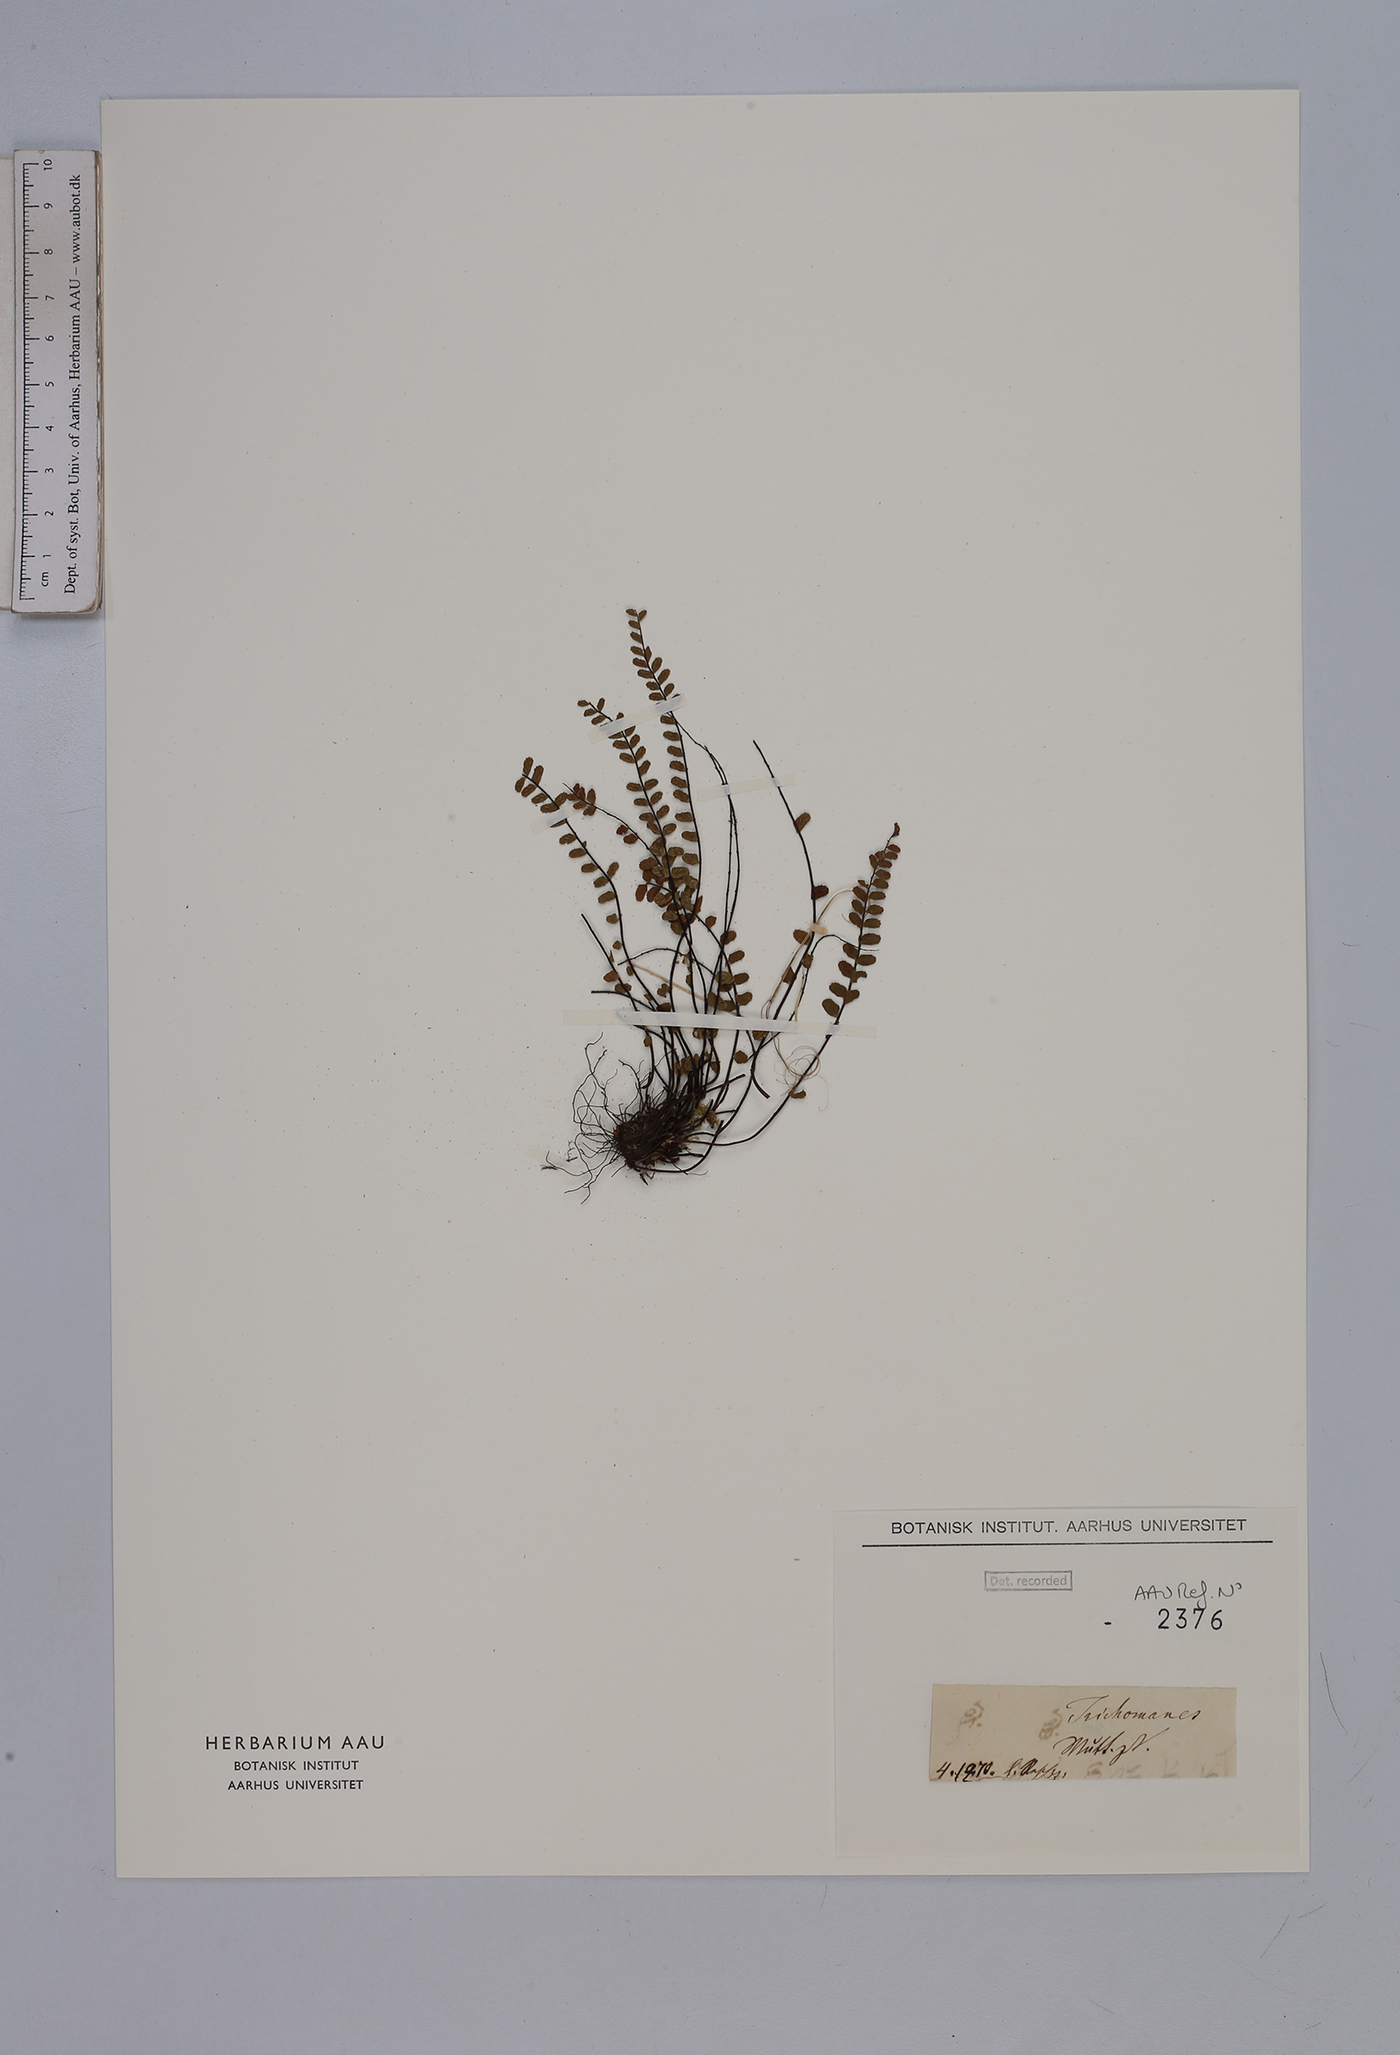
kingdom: Plantae
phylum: Tracheophyta
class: Polypodiopsida
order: Polypodiales
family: Aspleniaceae
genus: Asplenium
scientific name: Asplenium trichomanes
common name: Maidenhair spleenwort
